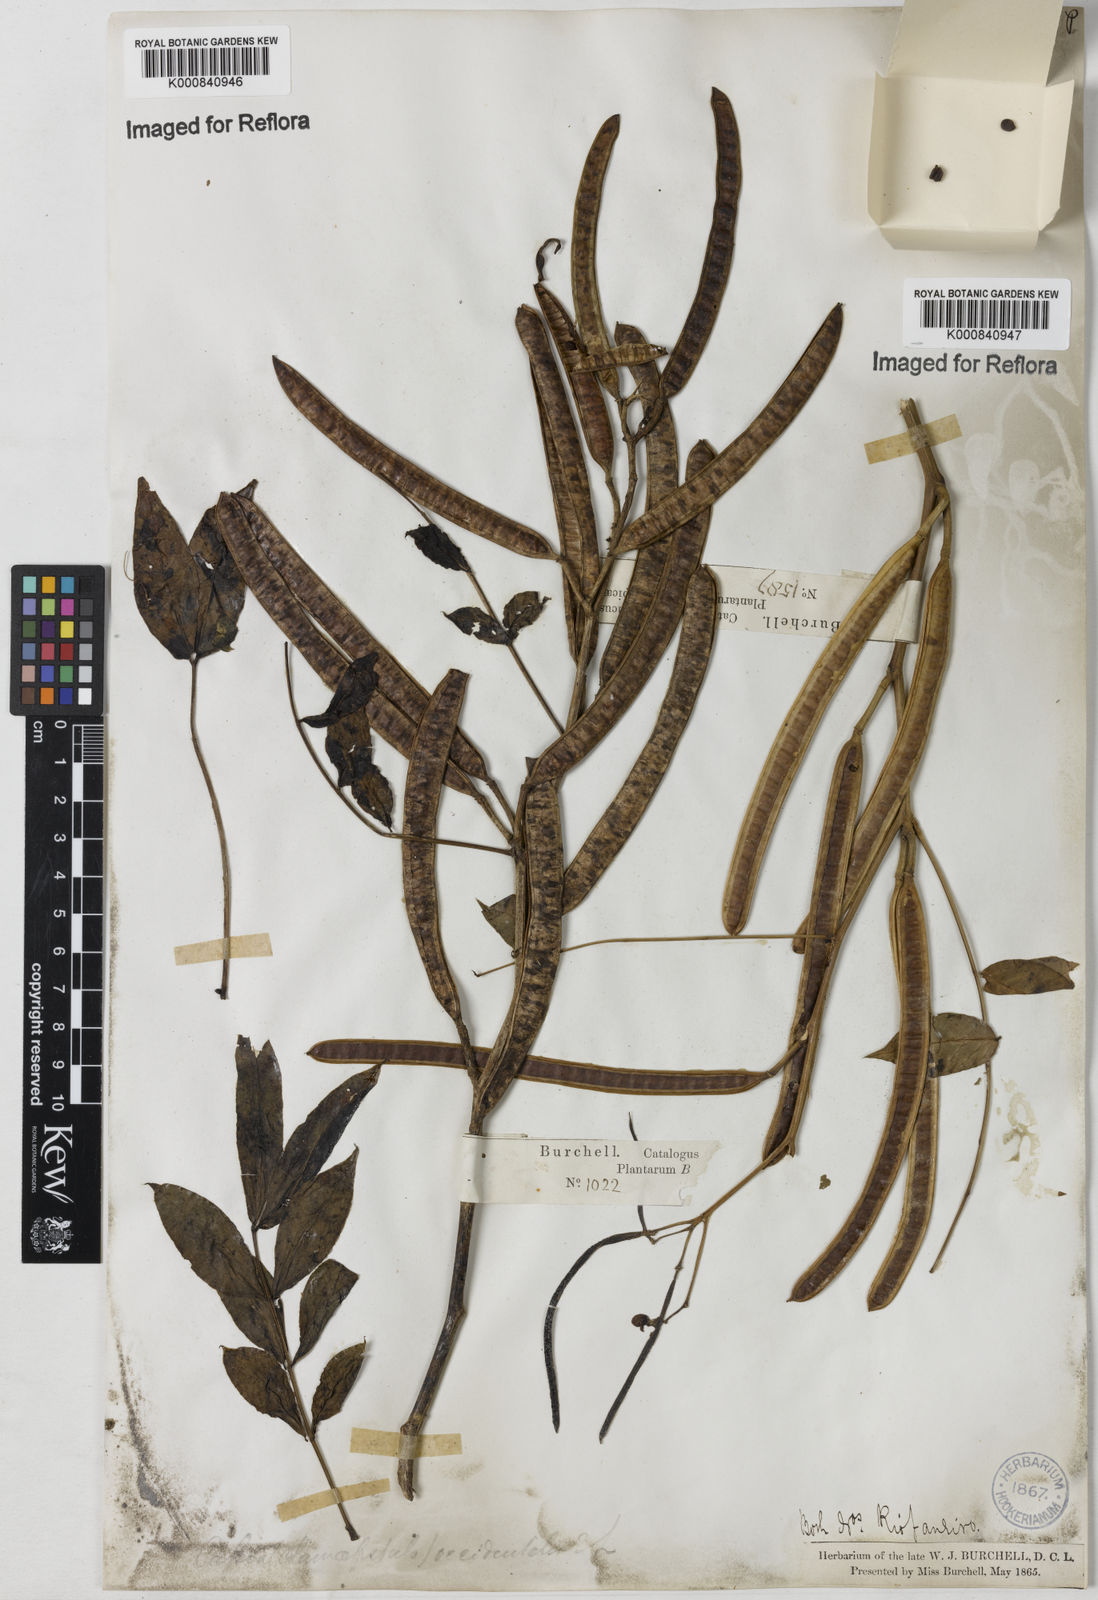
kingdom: Plantae
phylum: Tracheophyta
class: Magnoliopsida
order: Fabales
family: Fabaceae
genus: Senna
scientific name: Senna occidentalis
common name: Septicweed
